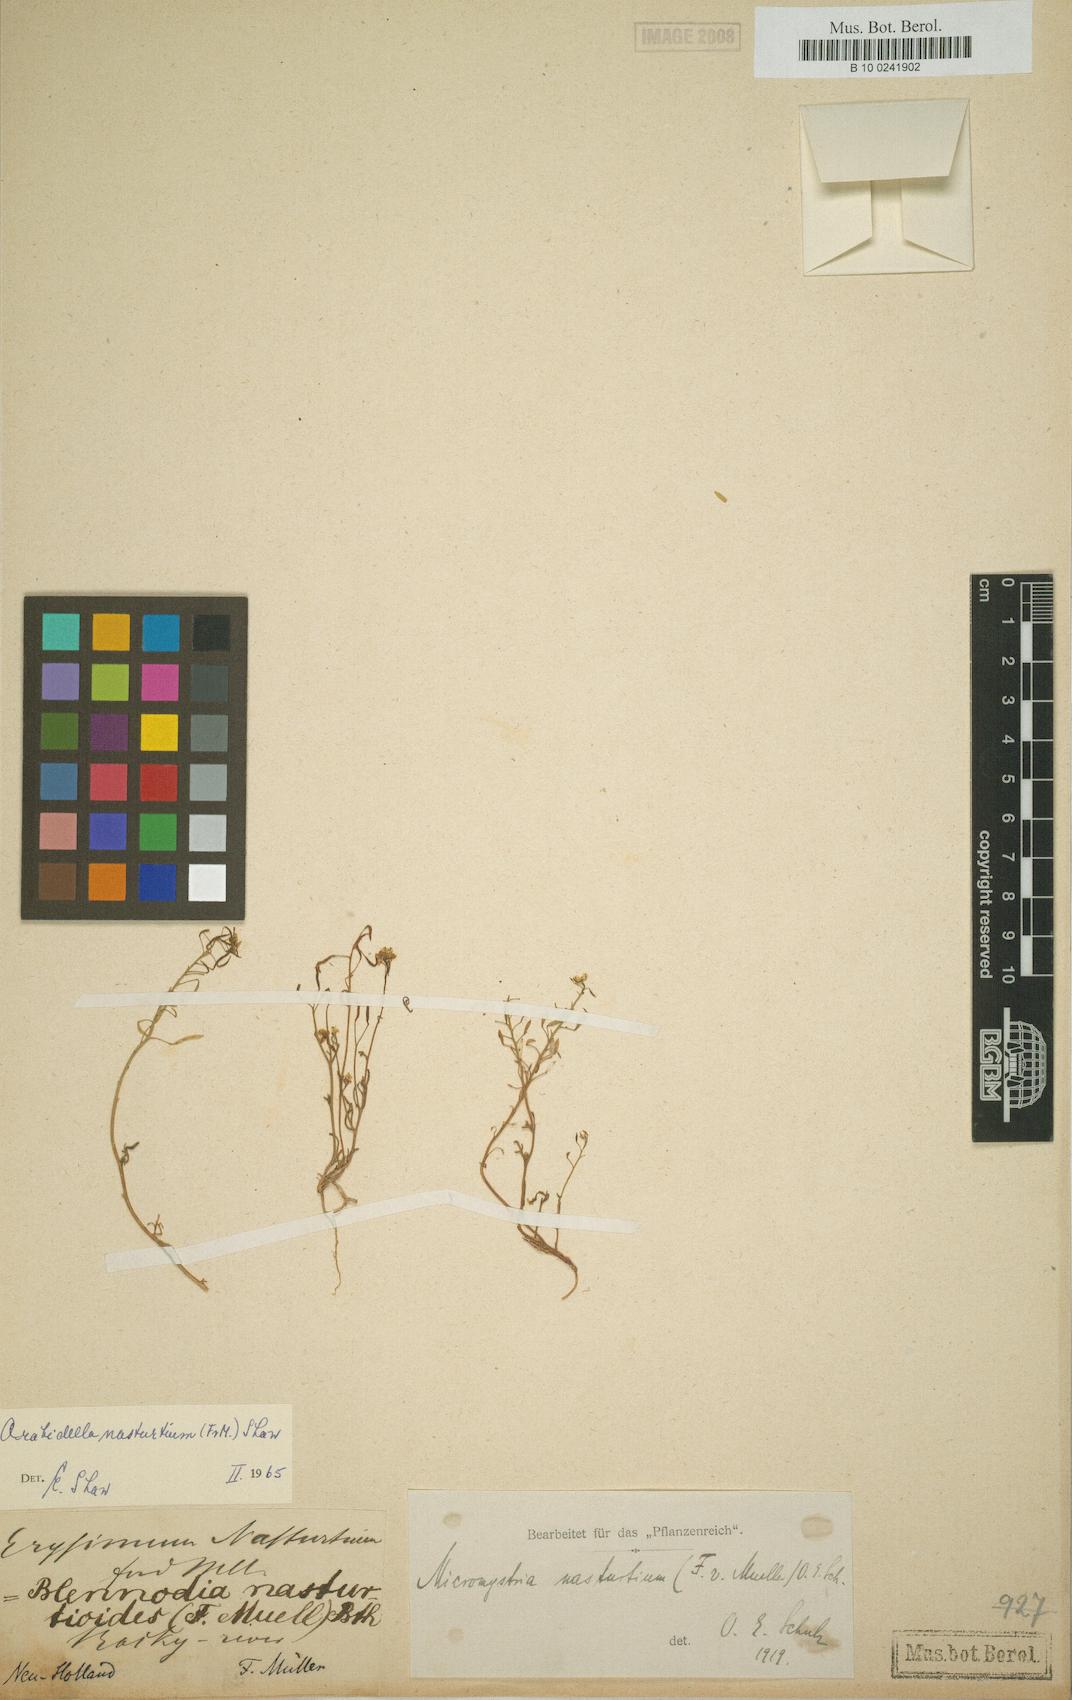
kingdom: Plantae
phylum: Tracheophyta
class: Magnoliopsida
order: Brassicales
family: Brassicaceae
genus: Arabidella
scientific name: Arabidella nasturtium
